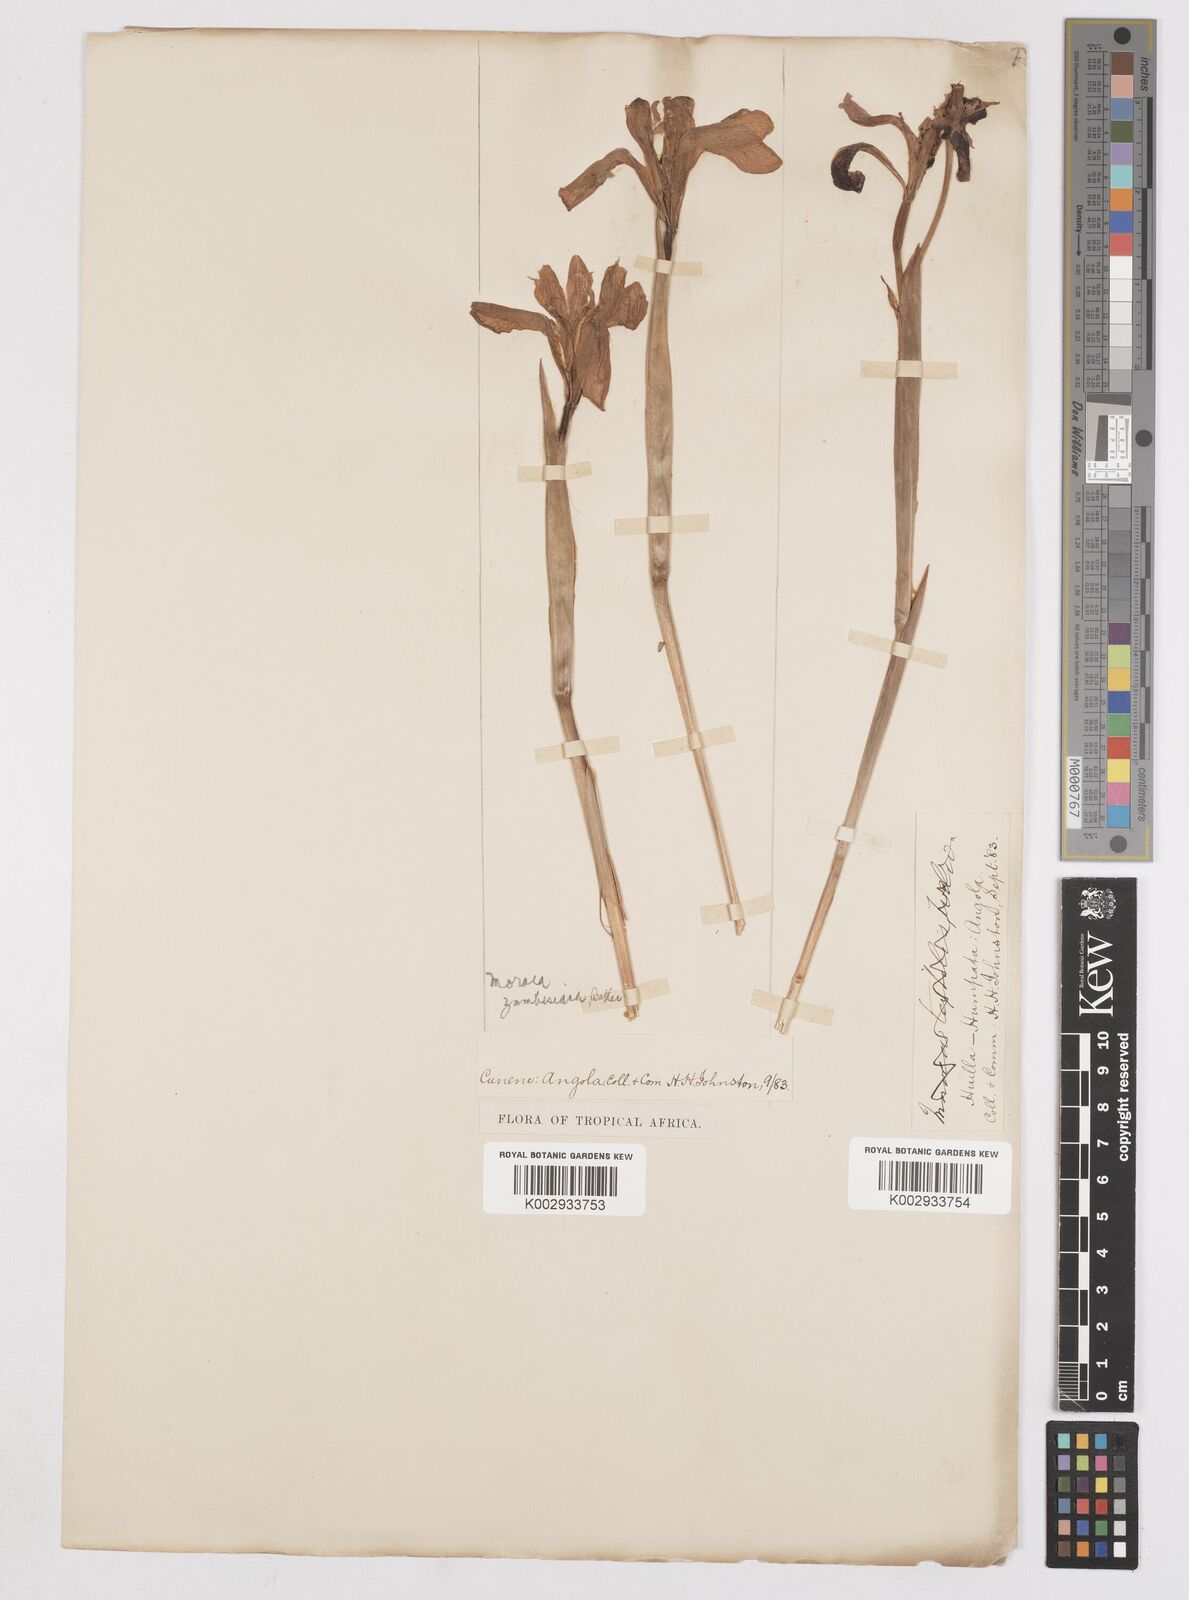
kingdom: Plantae
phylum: Tracheophyta
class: Liliopsida
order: Asparagales
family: Iridaceae
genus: Moraea
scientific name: Moraea schimperi
